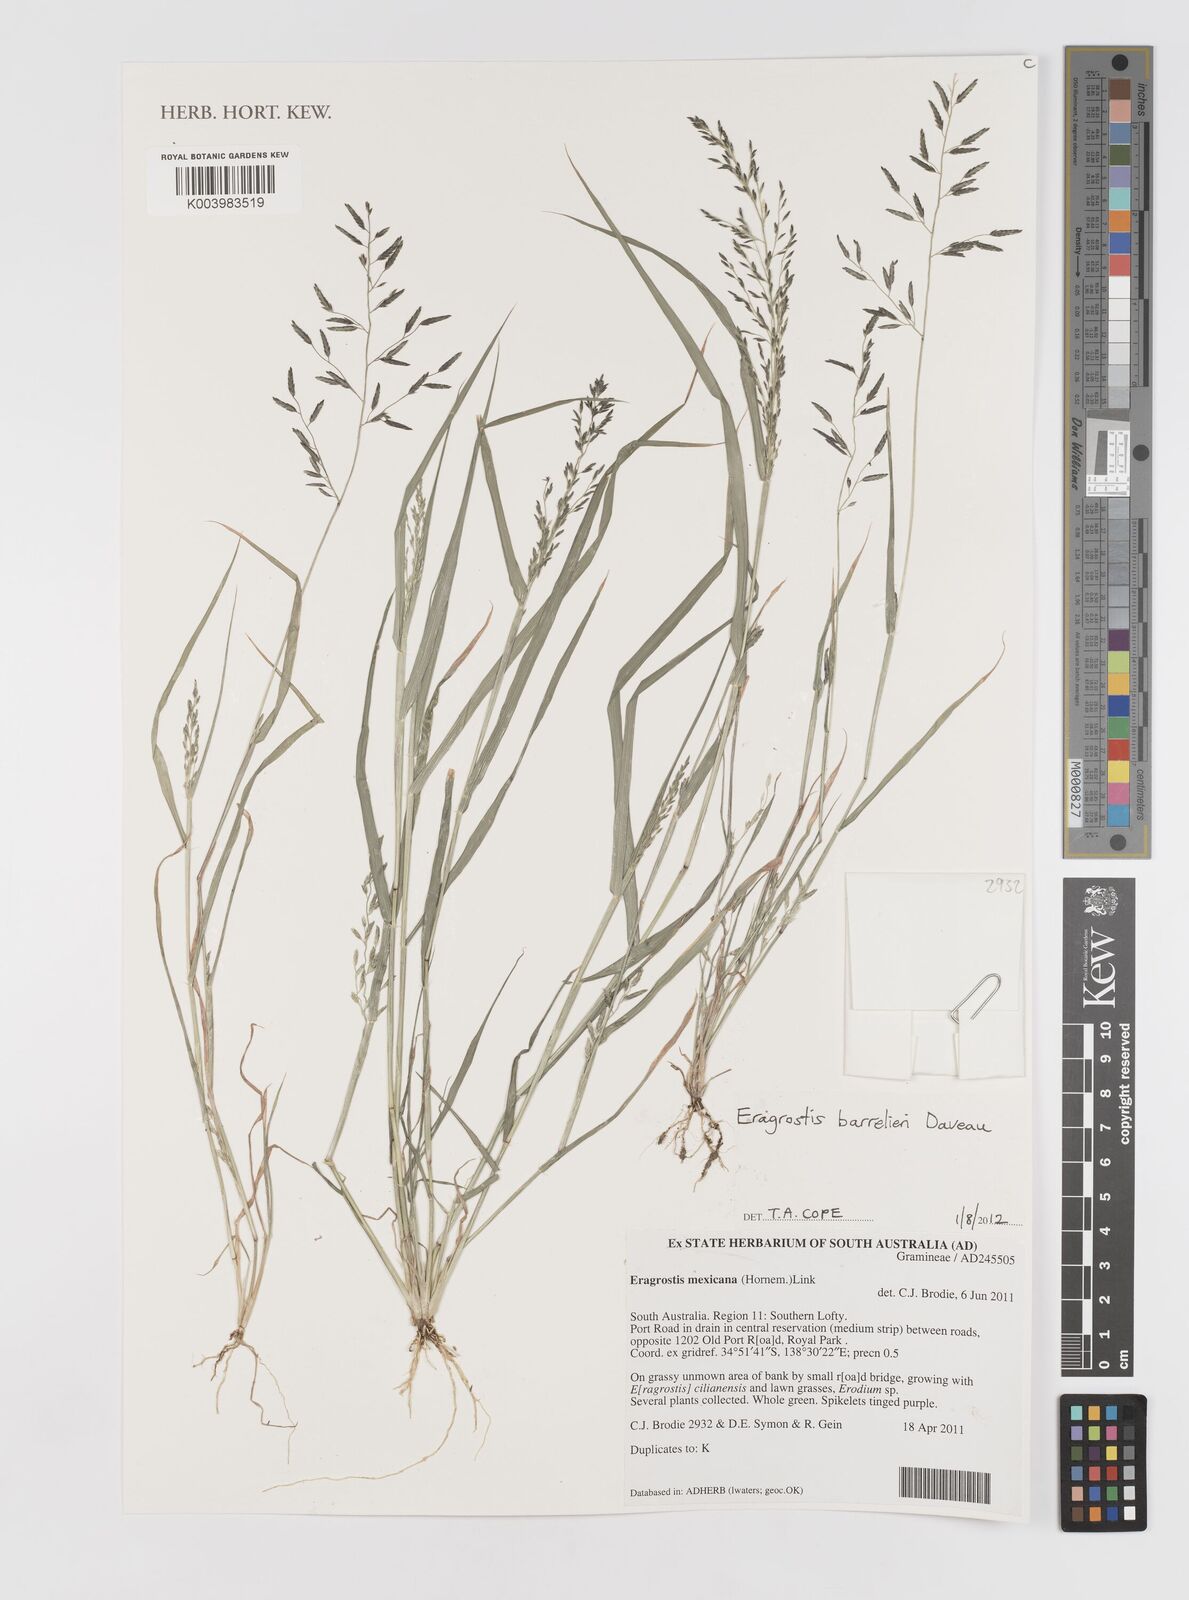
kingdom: Plantae
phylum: Tracheophyta
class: Liliopsida
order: Poales
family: Poaceae
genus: Eragrostis
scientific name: Eragrostis barrelieri
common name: Mediterranean lovegrass
